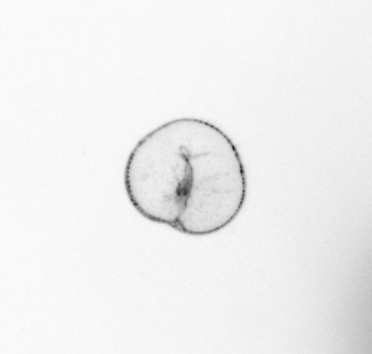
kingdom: Chromista
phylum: Myzozoa
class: Dinophyceae
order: Noctilucales
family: Noctilucaceae
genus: Noctiluca
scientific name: Noctiluca scintillans
